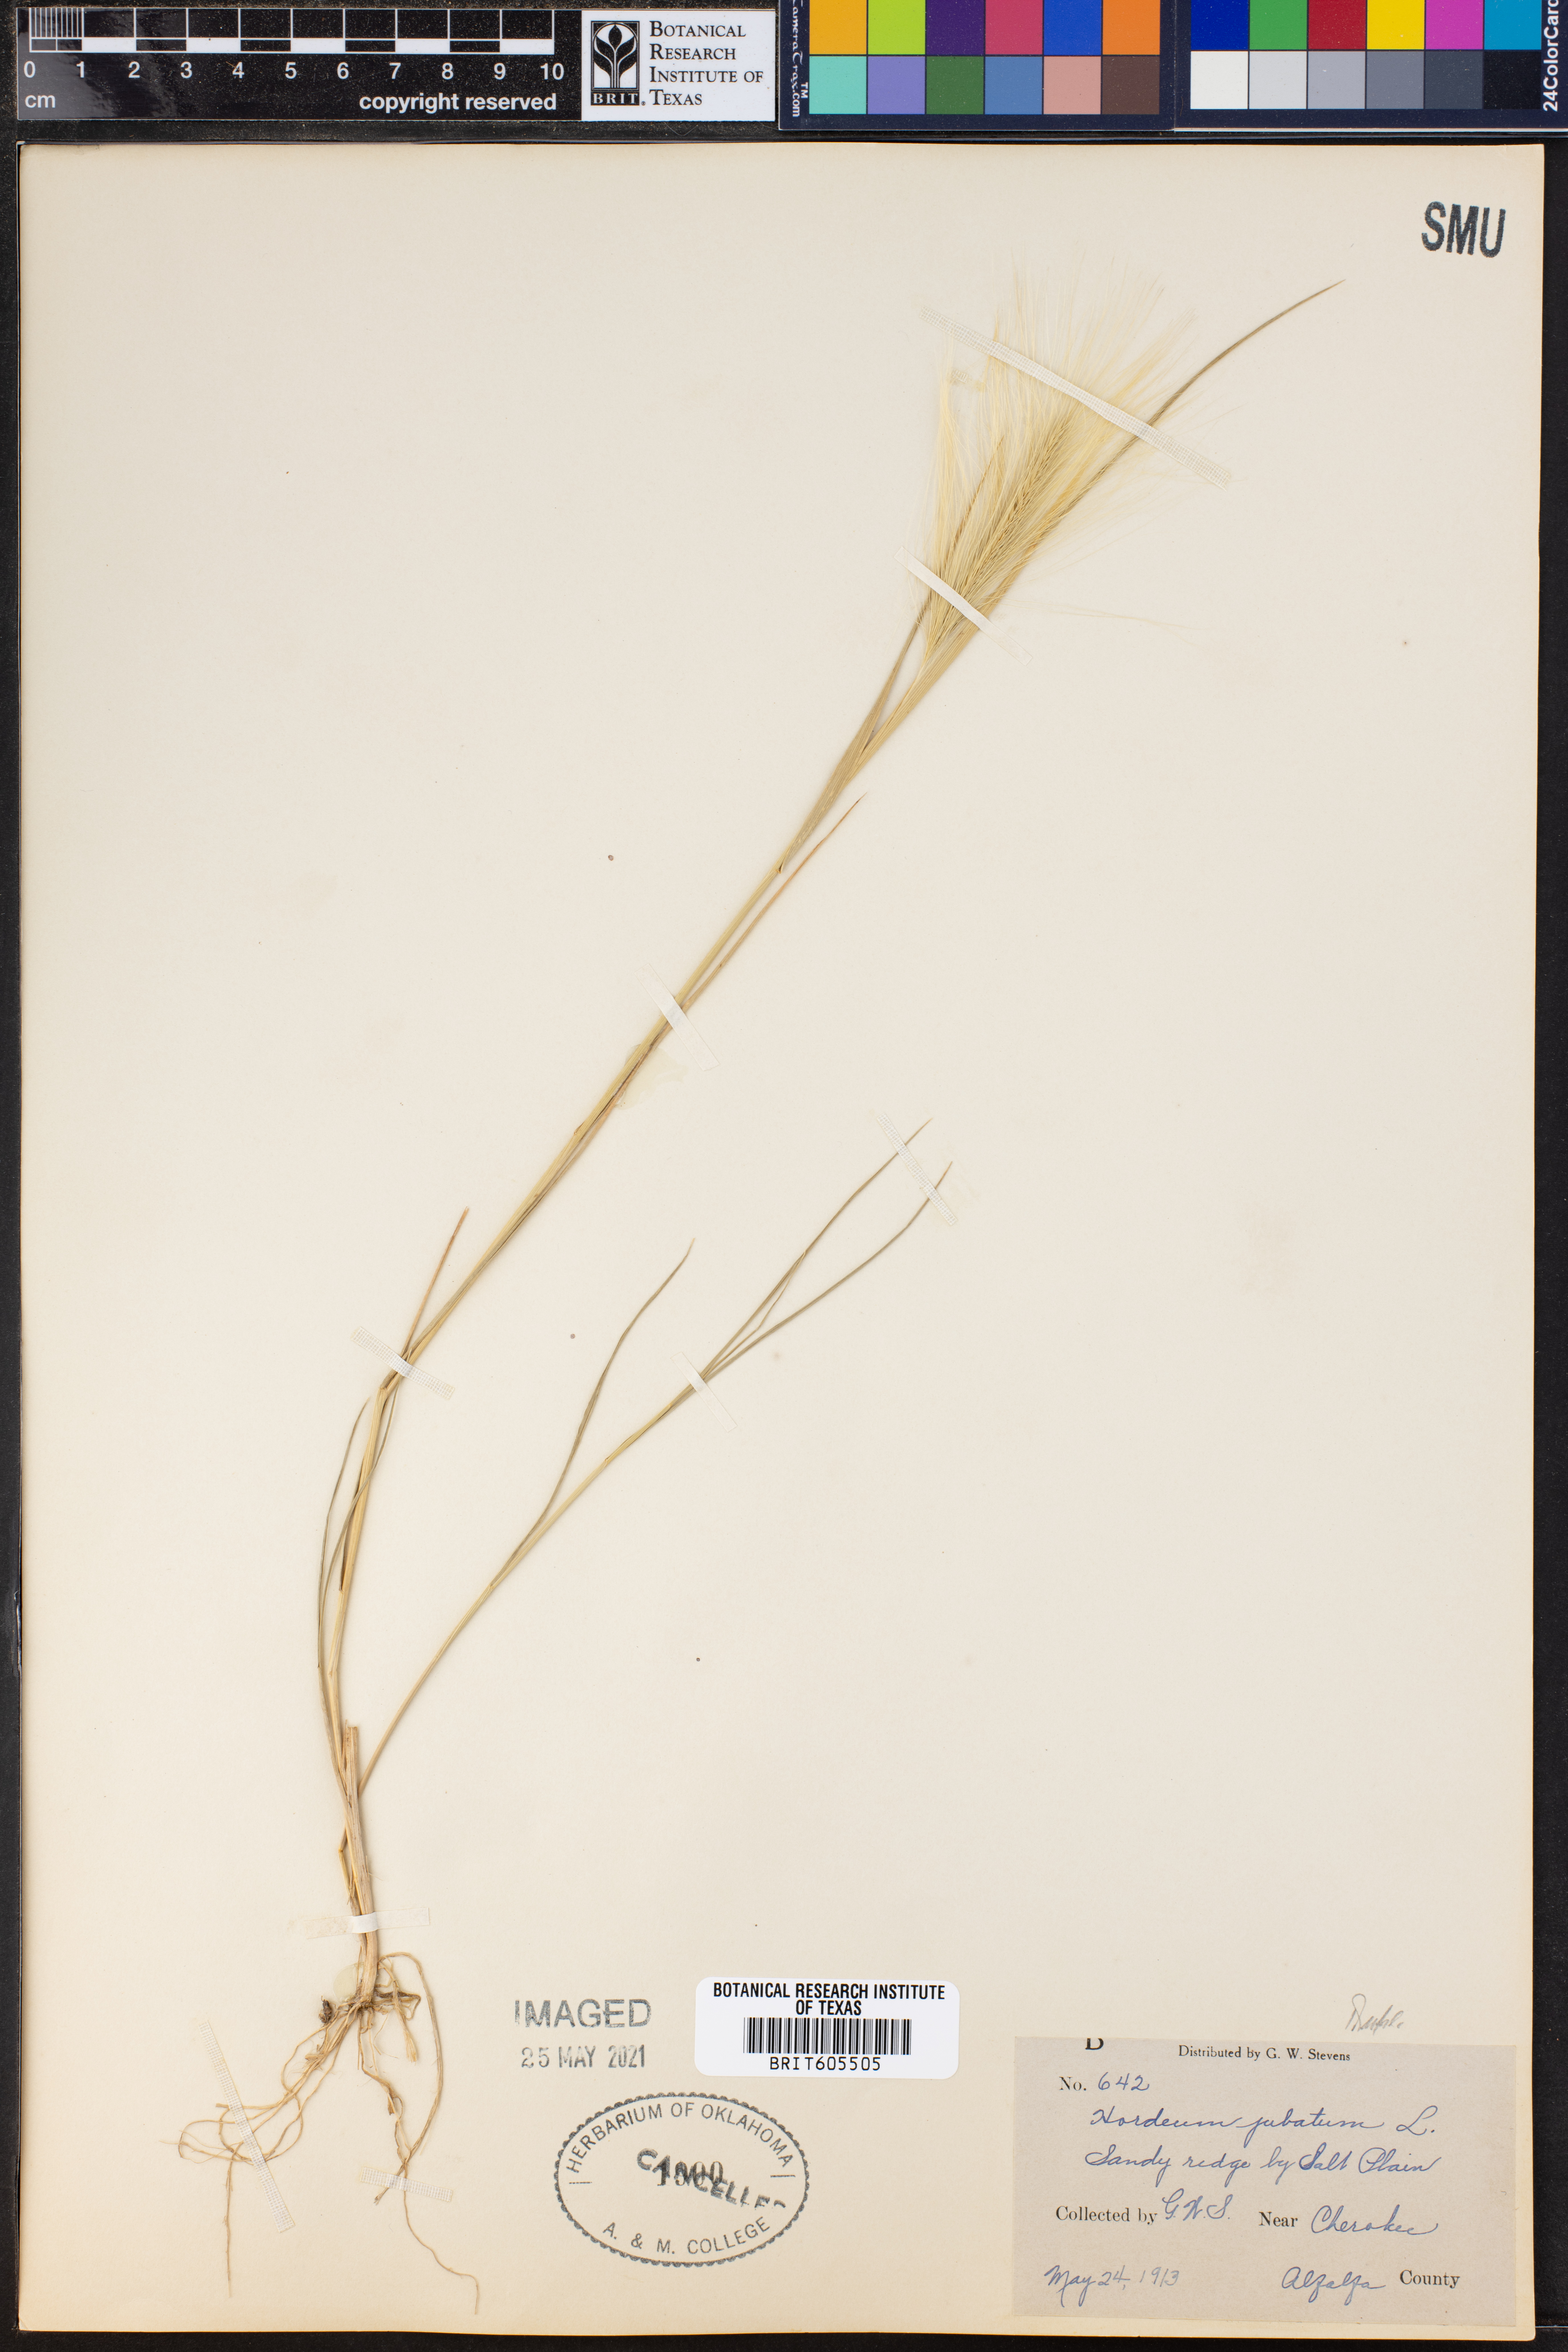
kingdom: Plantae
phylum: Tracheophyta
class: Liliopsida
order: Poales
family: Poaceae
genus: Hordeum
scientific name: Hordeum jubatum
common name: Foxtail barley
